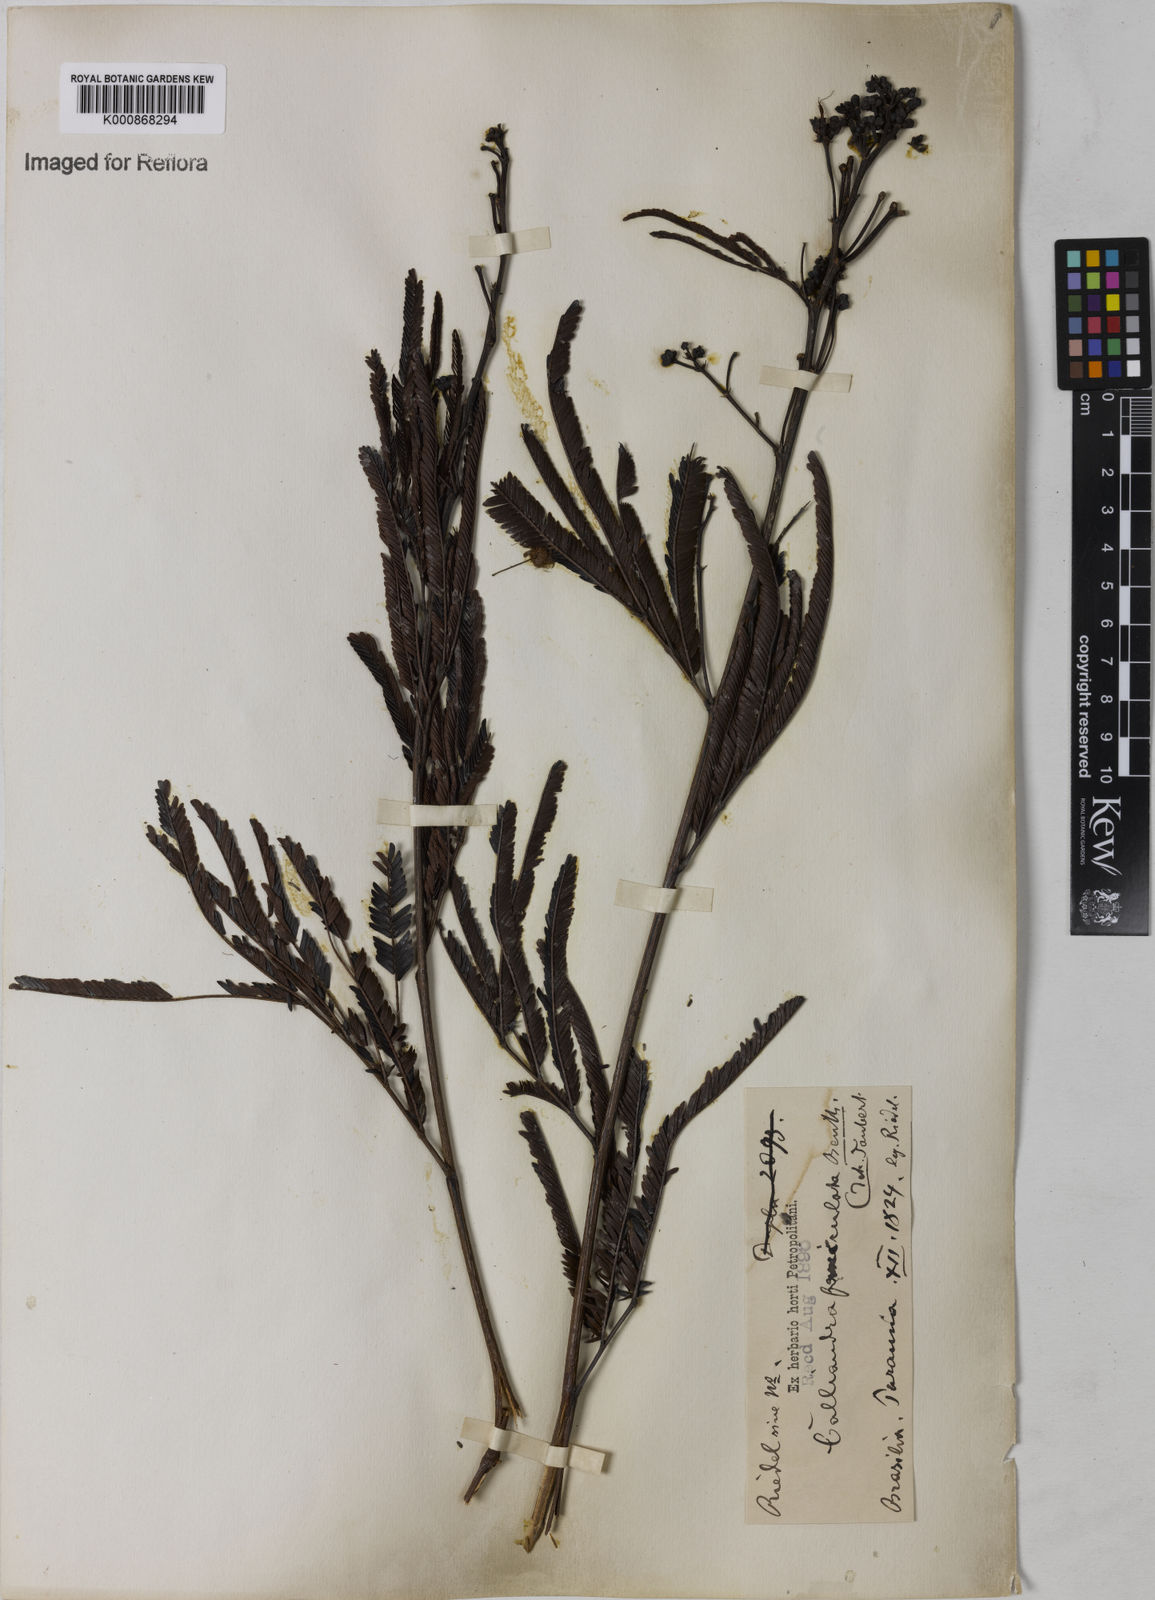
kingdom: Plantae
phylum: Tracheophyta
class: Magnoliopsida
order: Fabales
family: Fabaceae
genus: Calliandra
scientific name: Calliandra fasciculata
